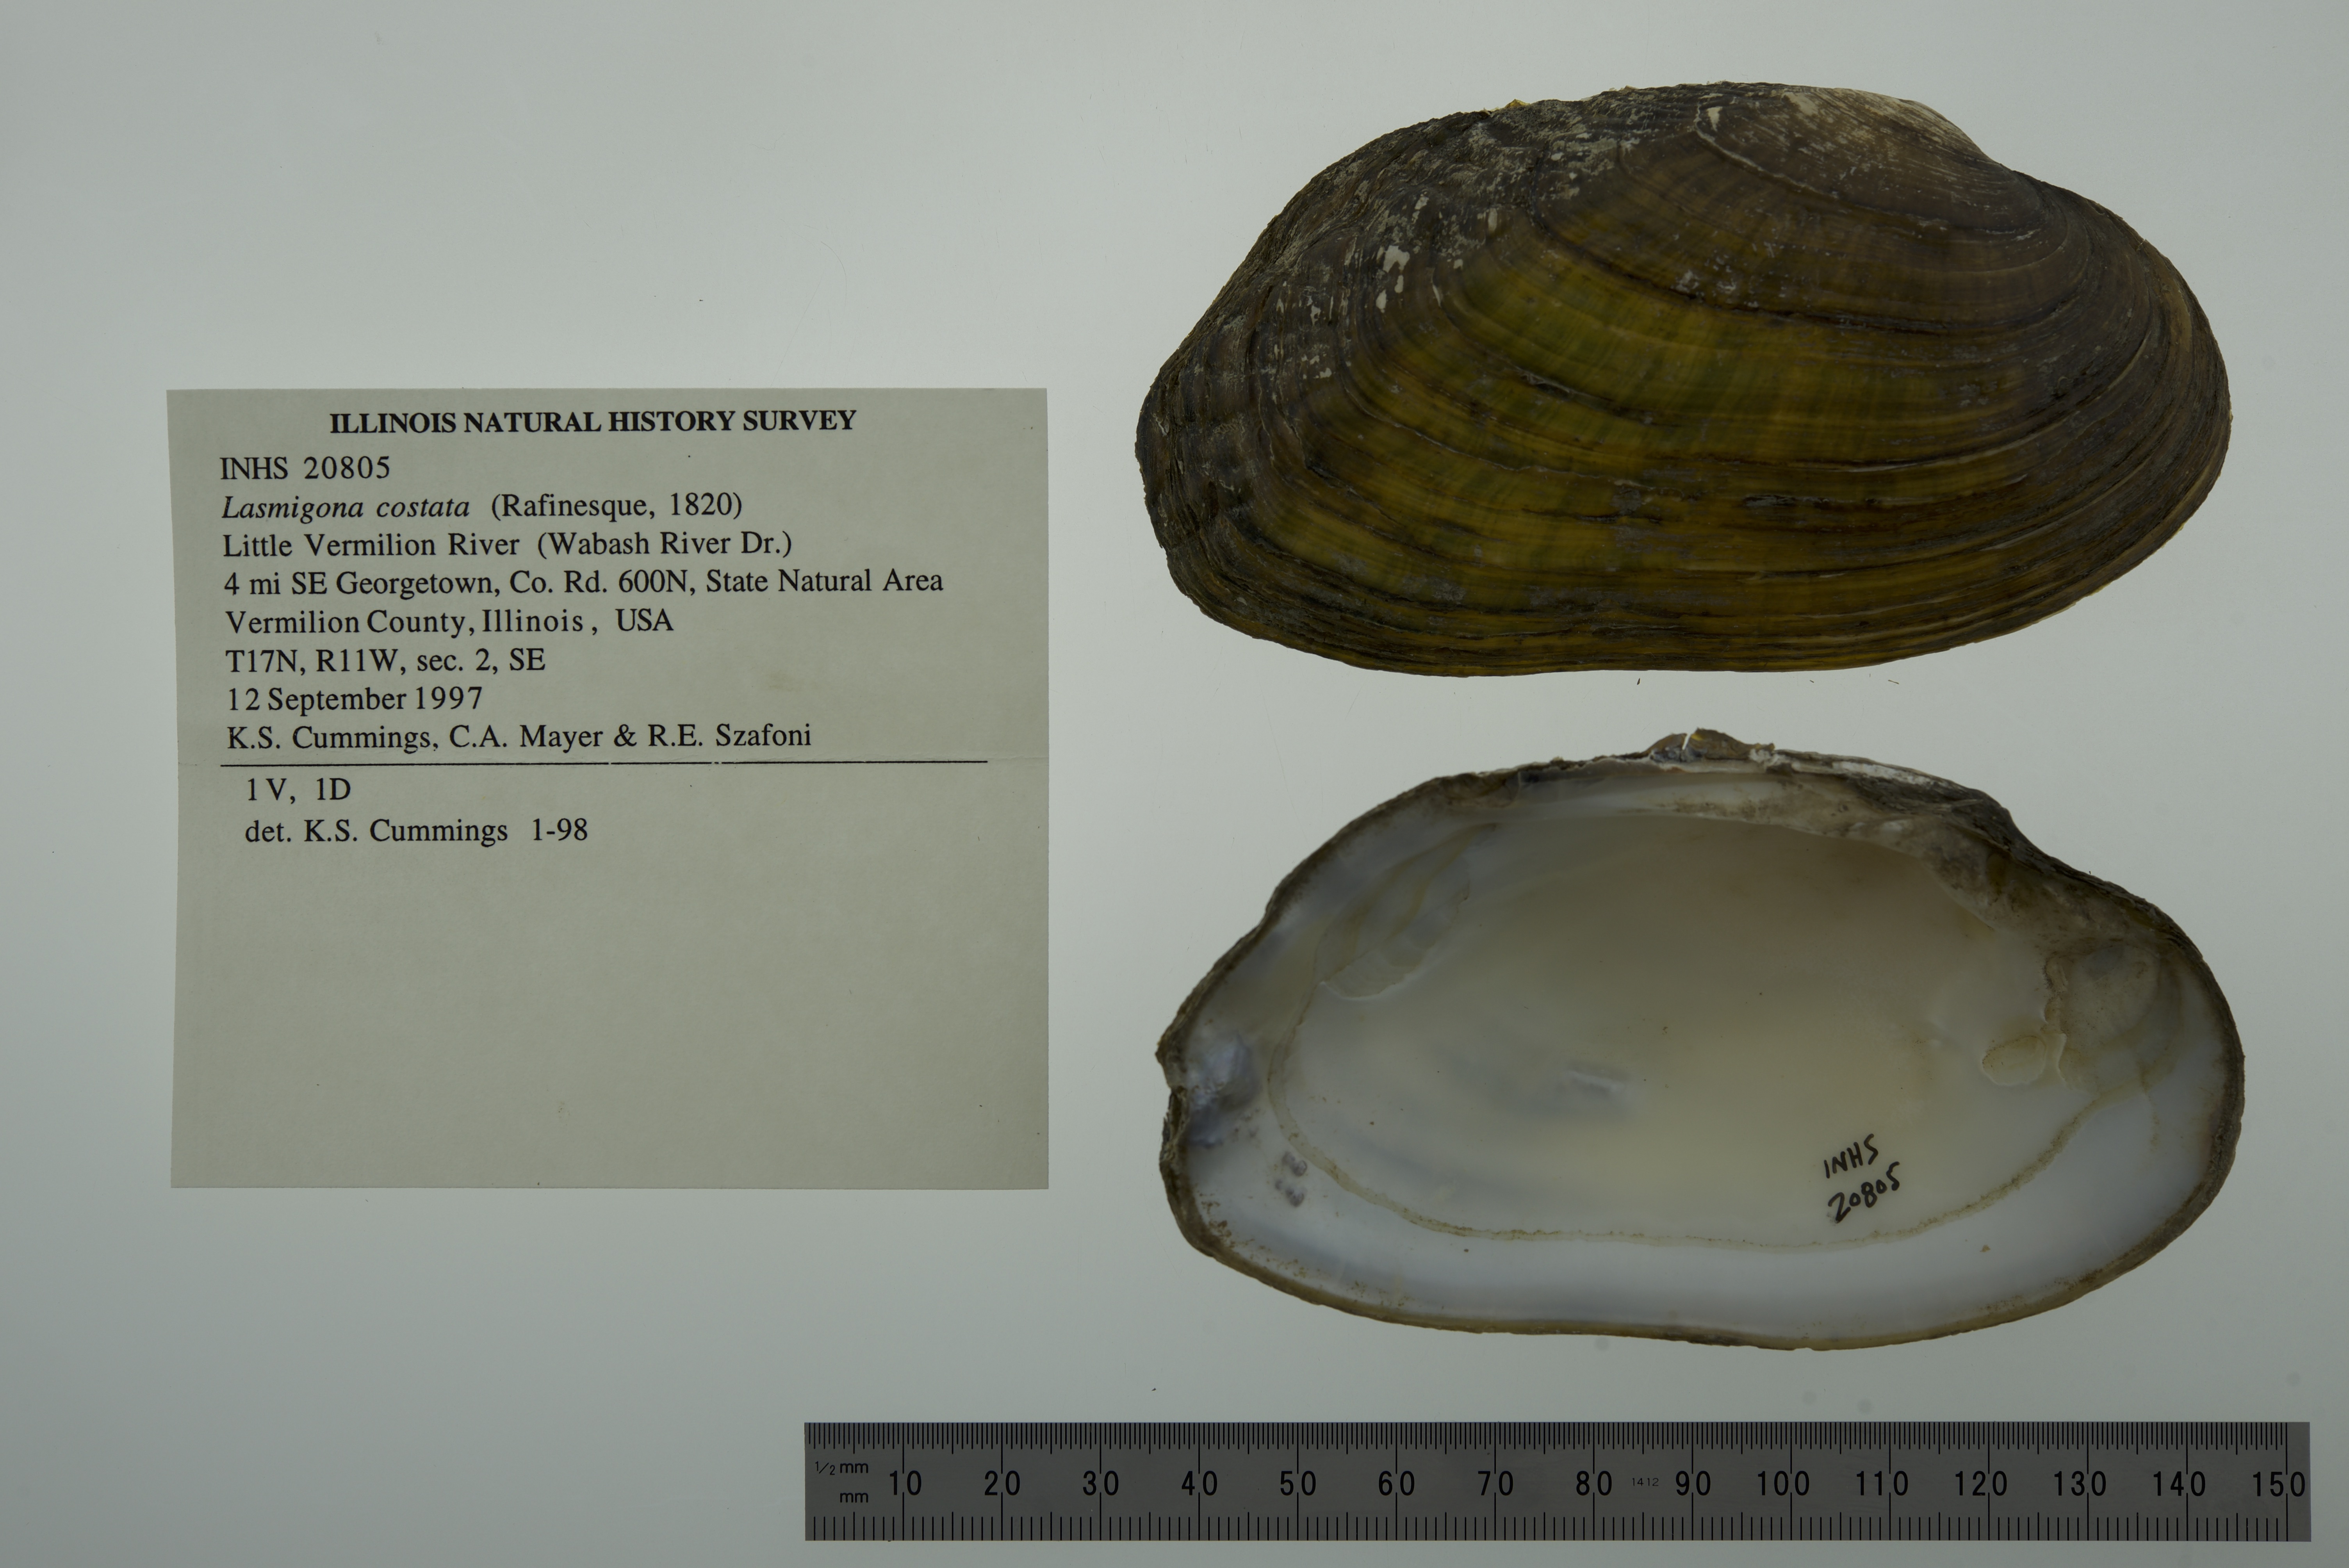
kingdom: Animalia
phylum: Mollusca
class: Bivalvia
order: Unionida
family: Unionidae
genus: Lasmigona
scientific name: Lasmigona costata
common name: Flutedshell
